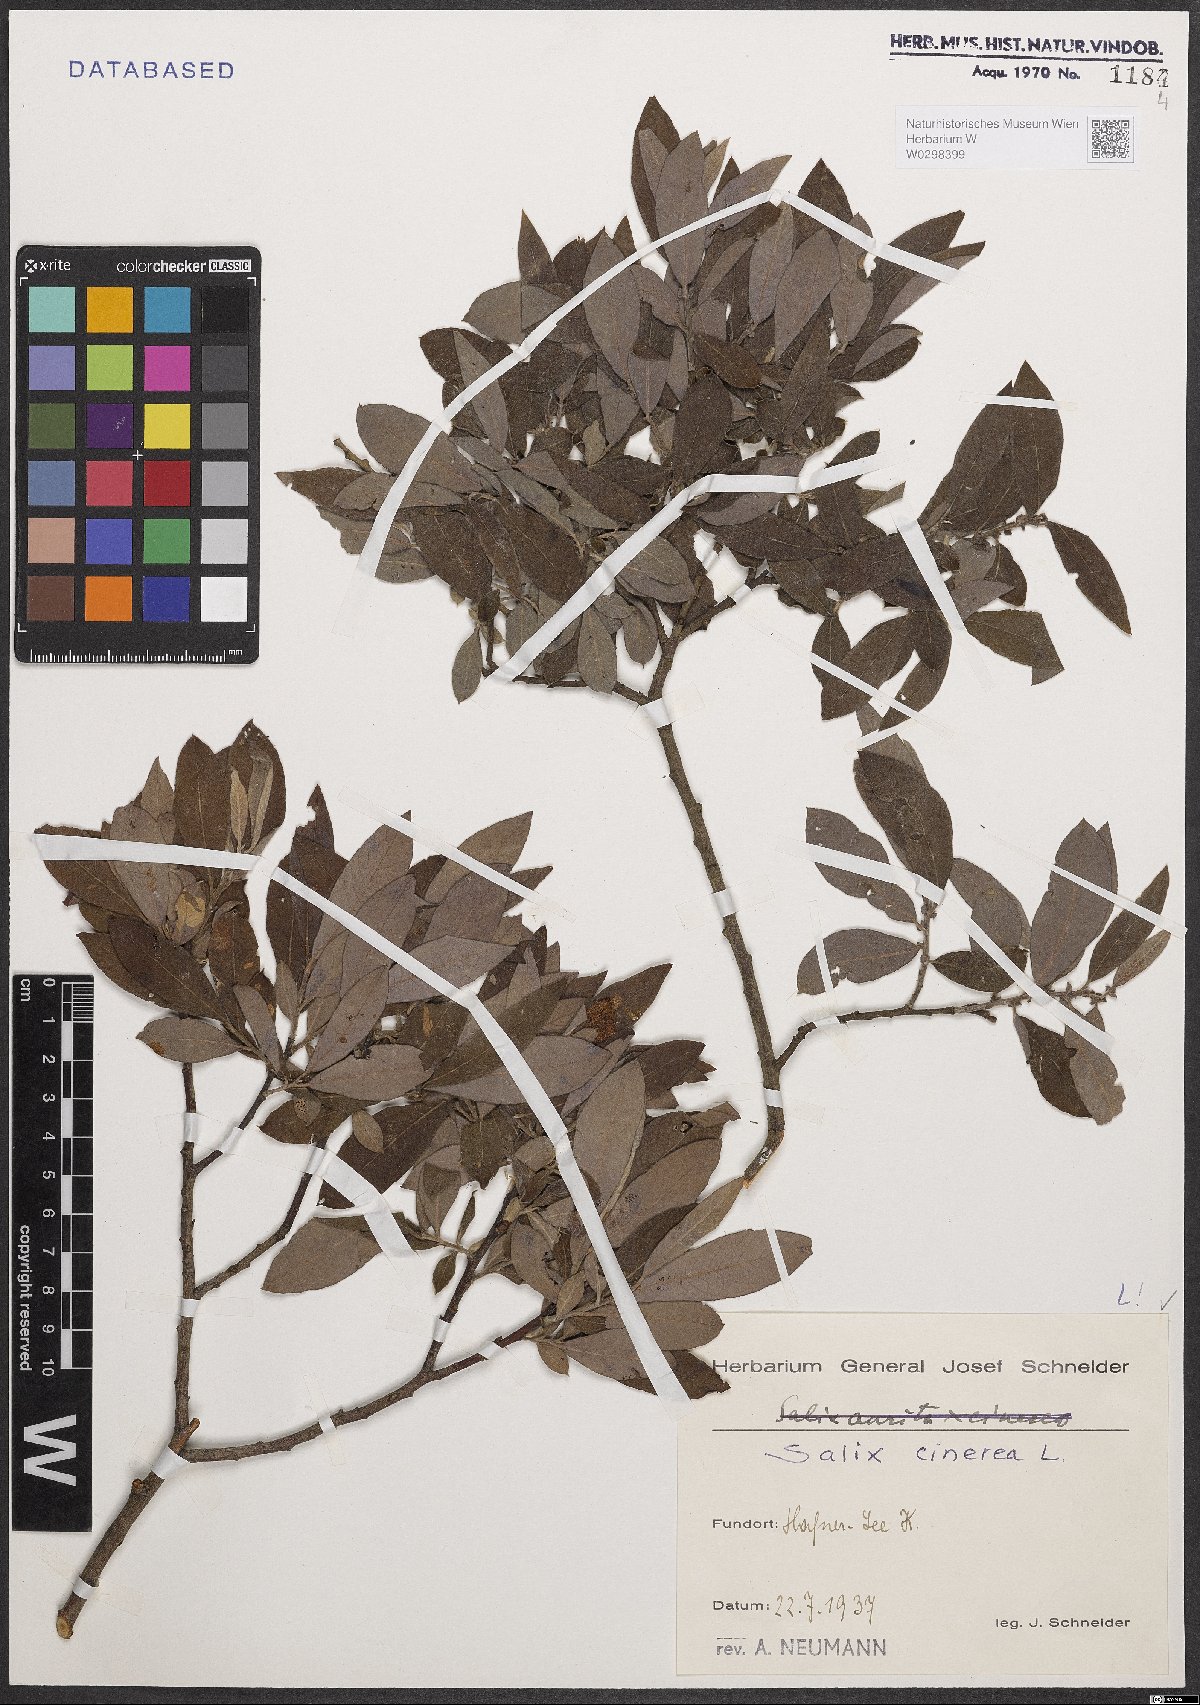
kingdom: Plantae
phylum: Tracheophyta
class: Magnoliopsida
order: Malpighiales
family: Salicaceae
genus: Salix
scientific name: Salix cinerea
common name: Common sallow
